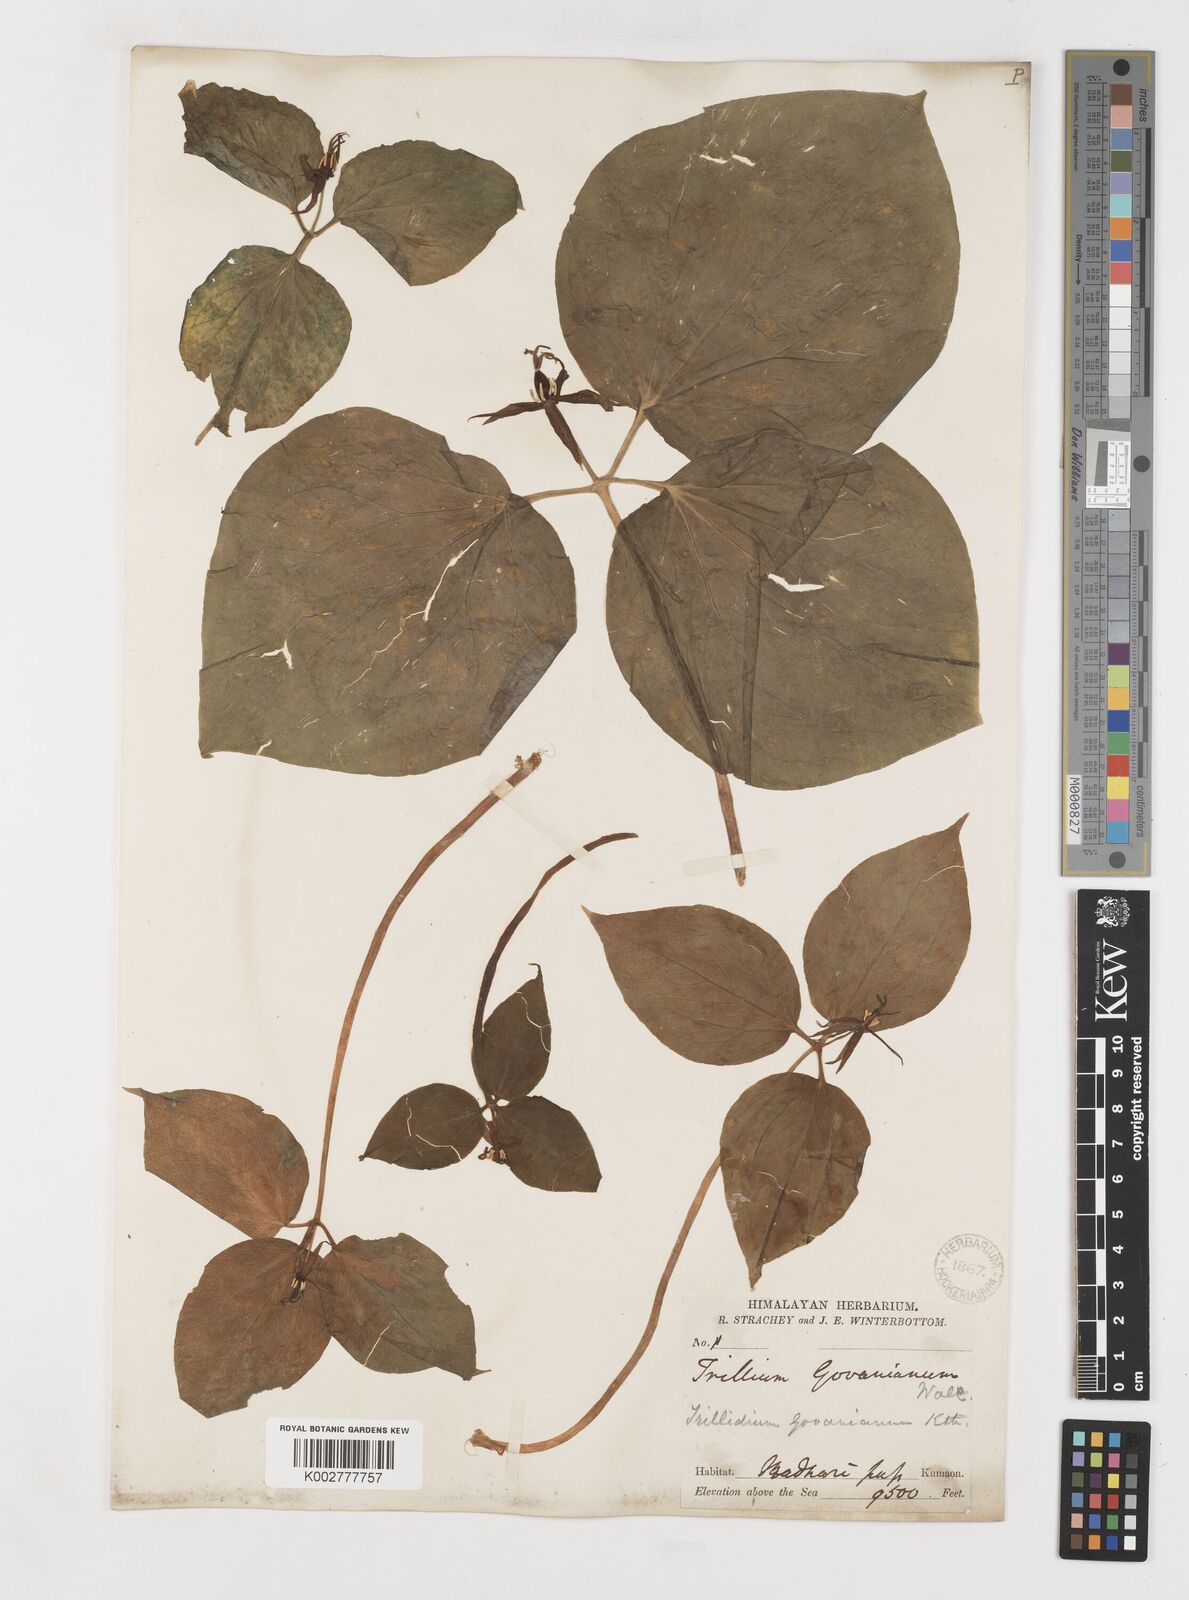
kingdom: Plantae
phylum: Tracheophyta
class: Liliopsida
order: Liliales
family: Melanthiaceae
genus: Trillium
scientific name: Trillium govanianum
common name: Himalayan trillium
